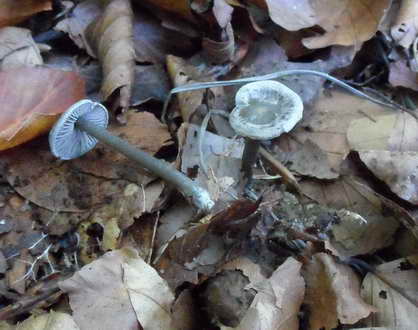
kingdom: Fungi
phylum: Basidiomycota
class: Agaricomycetes
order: Agaricales
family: Lyophyllaceae
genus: Tephrocybe
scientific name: Tephrocybe rancida
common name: mel-gråblad
